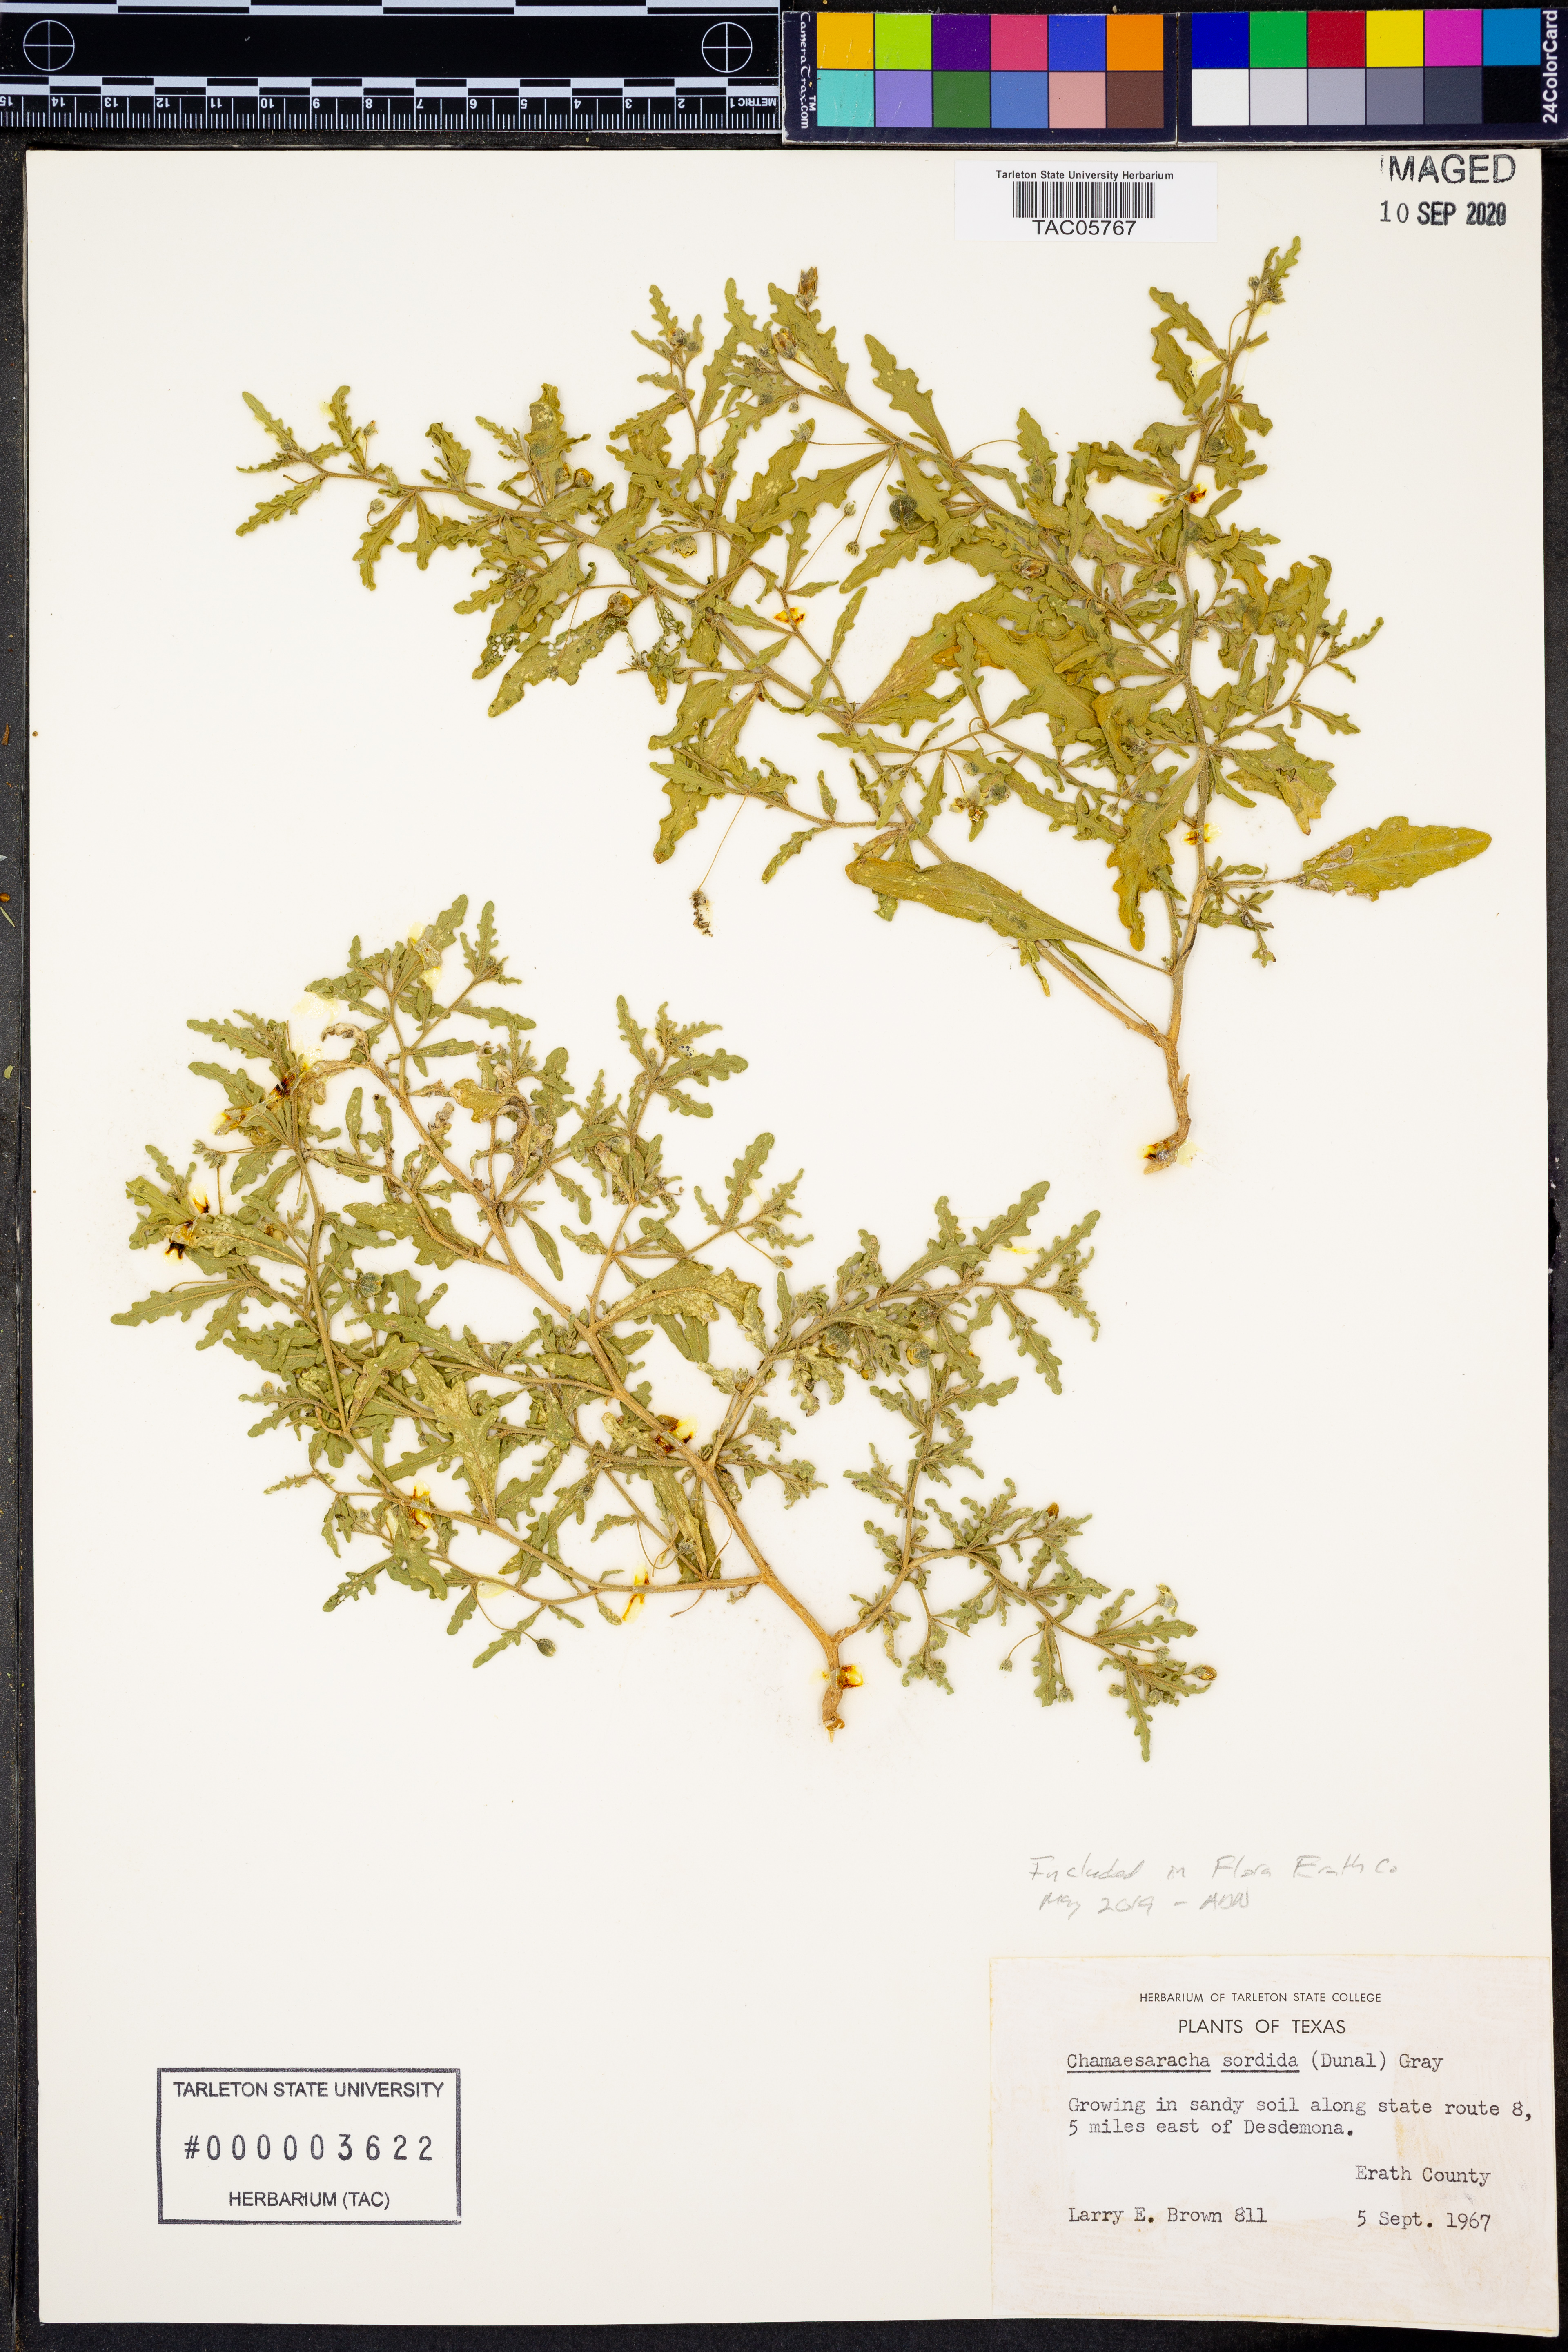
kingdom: Plantae
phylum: Tracheophyta
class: Magnoliopsida
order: Solanales
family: Solanaceae
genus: Chamaesaracha
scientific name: Chamaesaracha sordida
